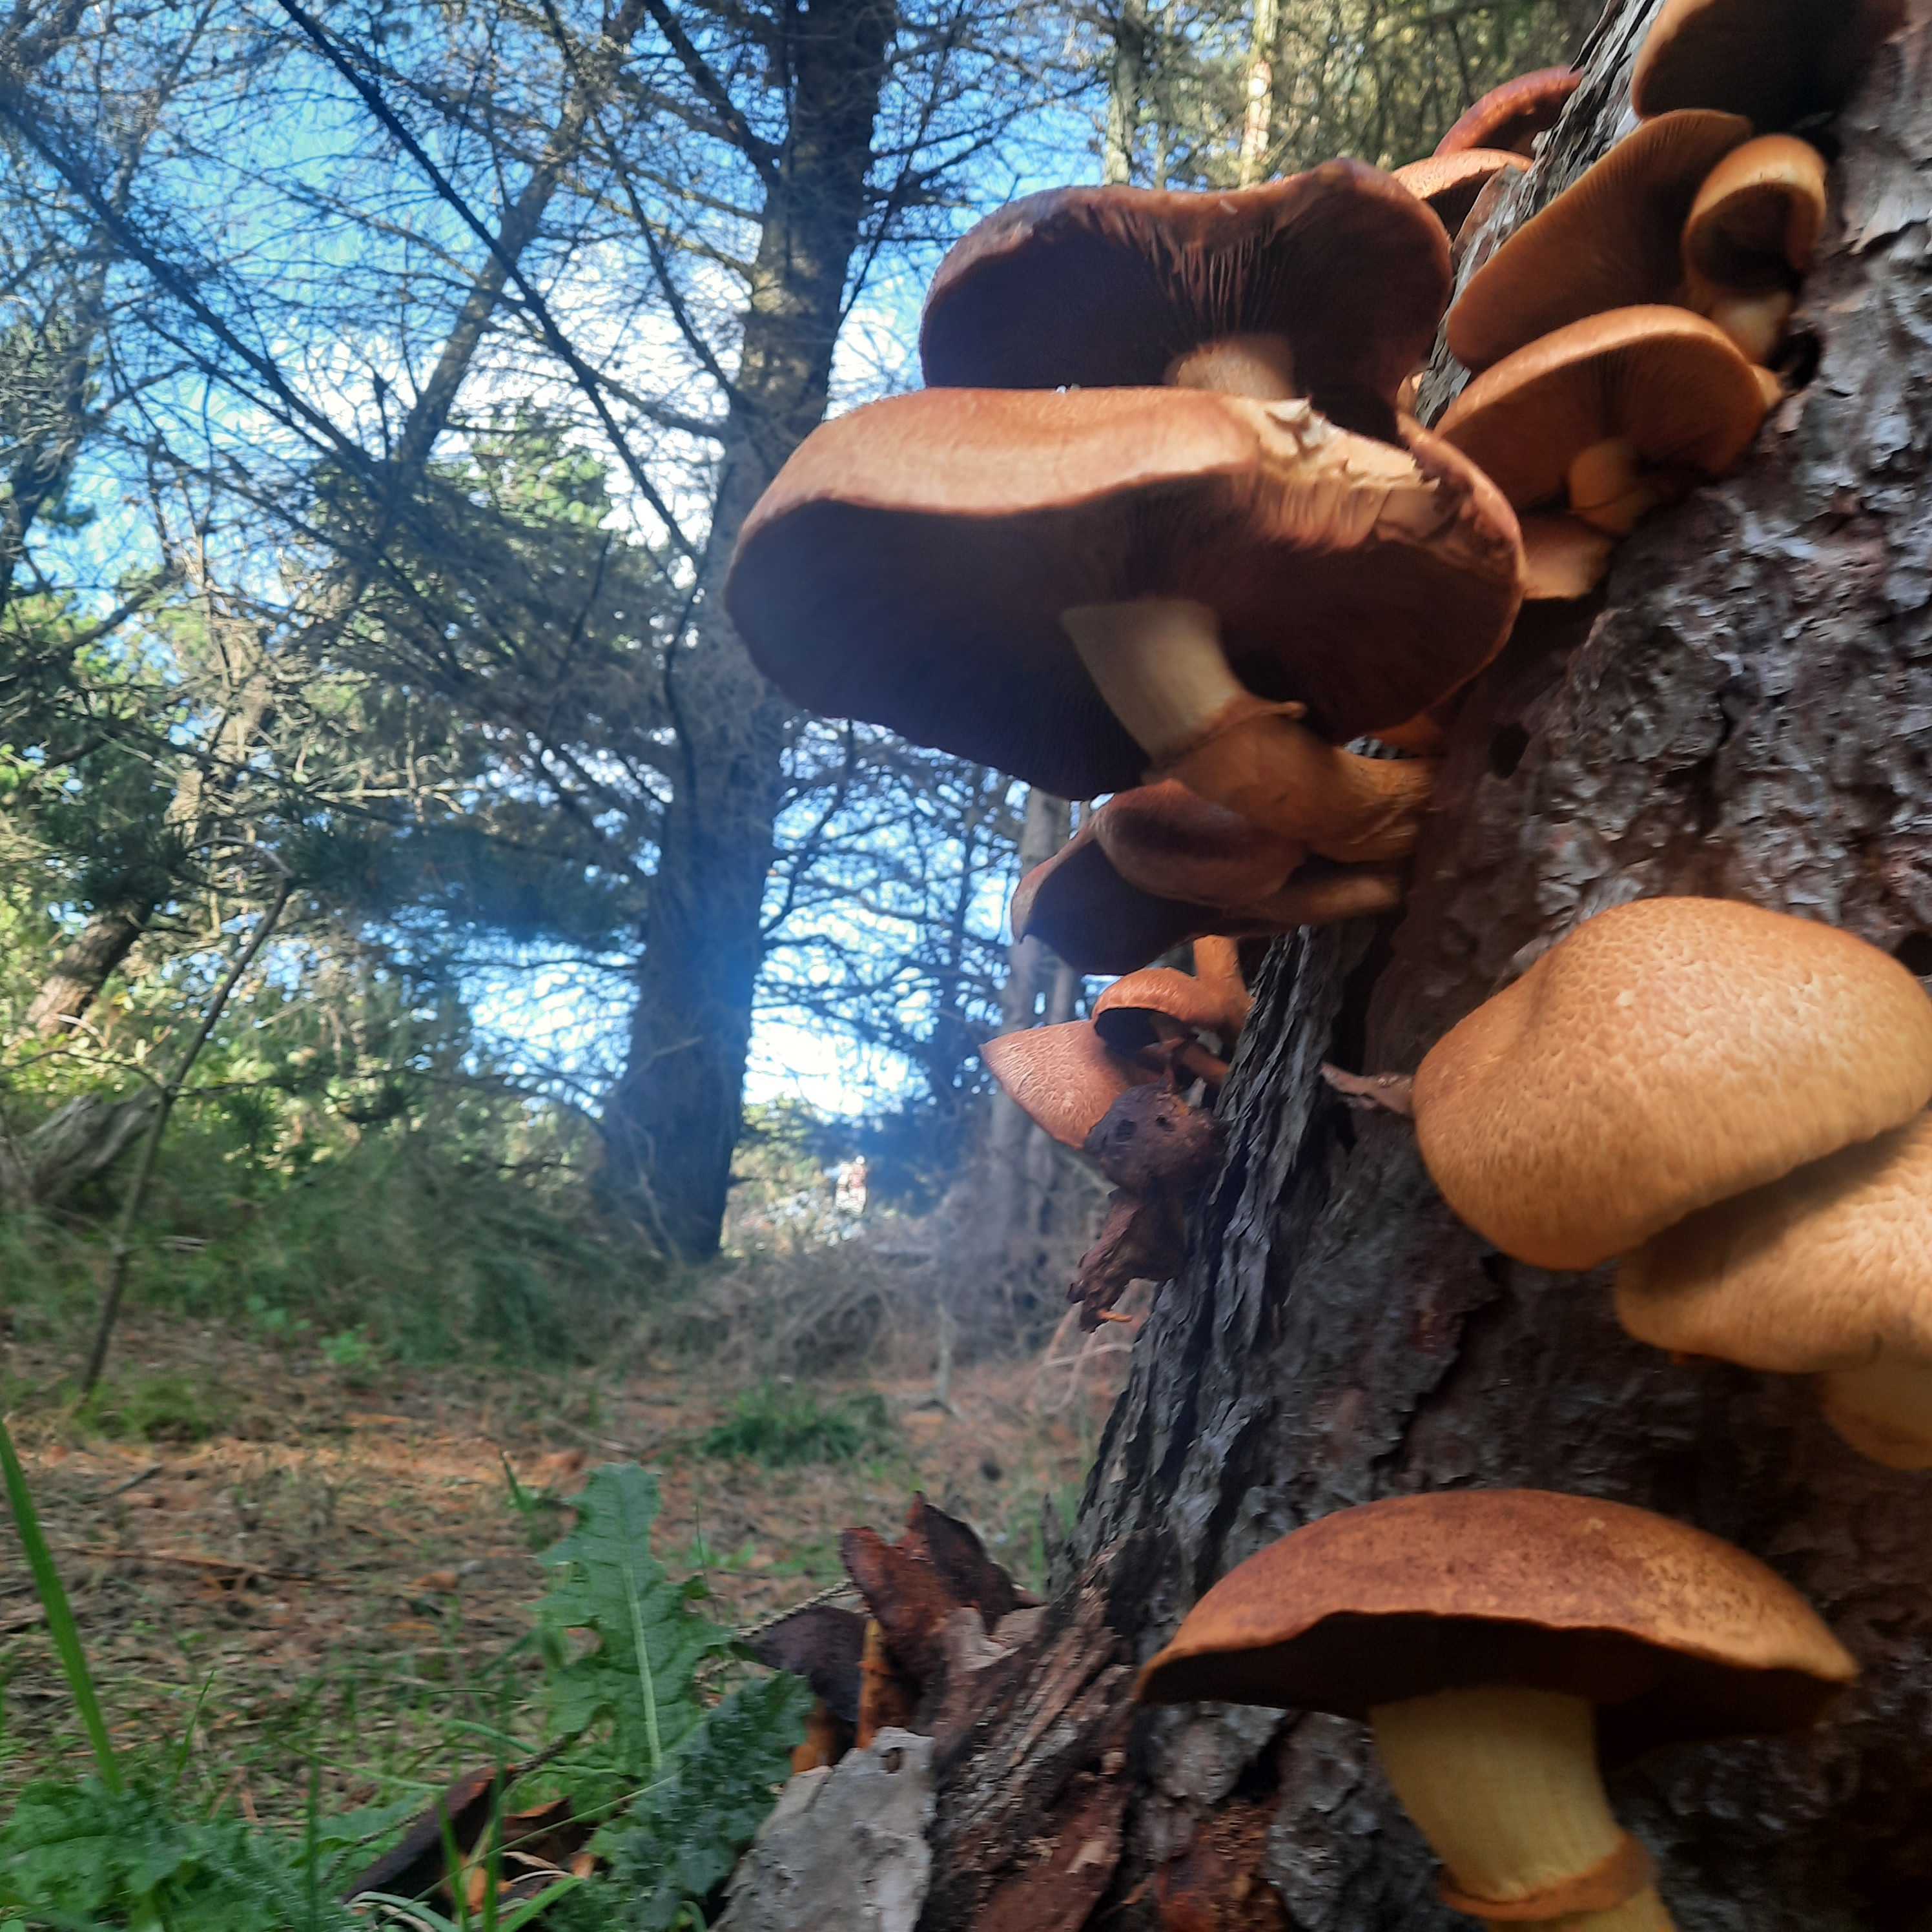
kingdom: Fungi
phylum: Basidiomycota
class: Agaricomycetes
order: Agaricales
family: Hymenogastraceae
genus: Gymnopilus
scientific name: Gymnopilus spectabilis
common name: fibret flammehat
